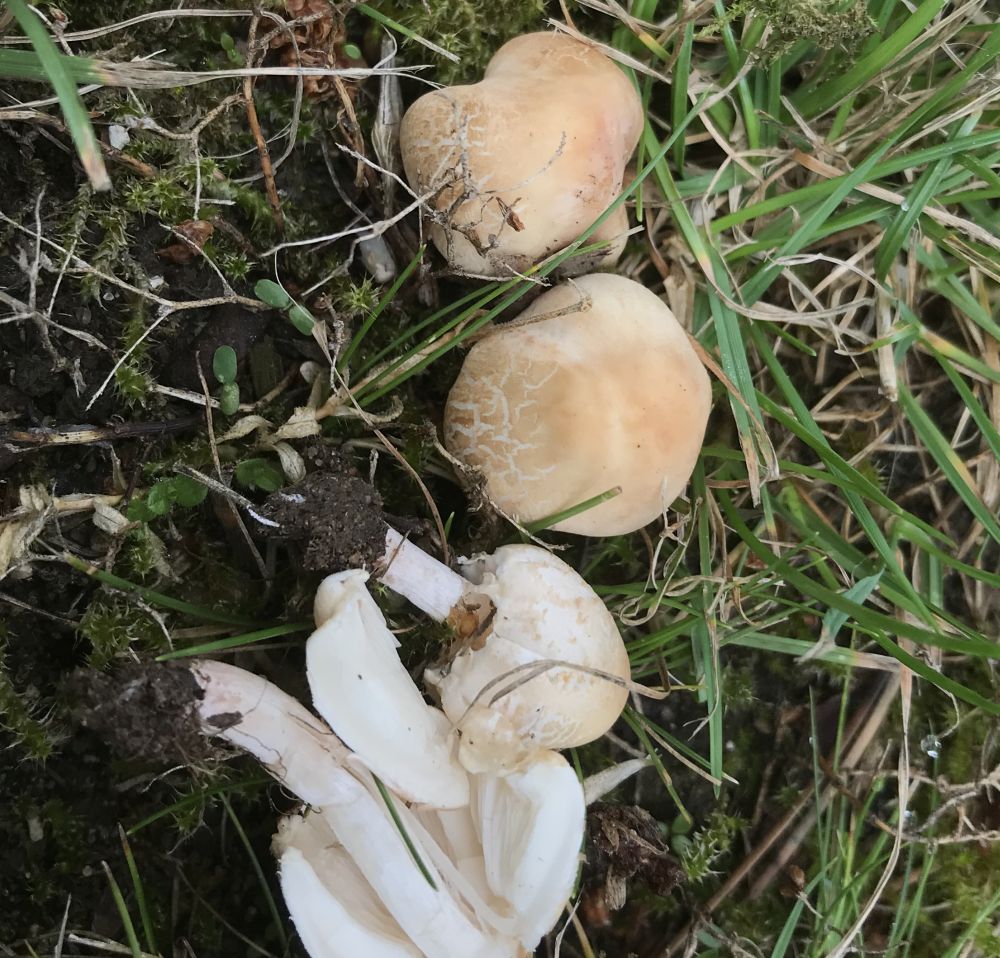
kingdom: Fungi
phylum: Basidiomycota
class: Agaricomycetes
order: Agaricales
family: Psathyrellaceae
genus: Candolleomyces
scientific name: Candolleomyces candolleanus
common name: Candolles mørkhat
